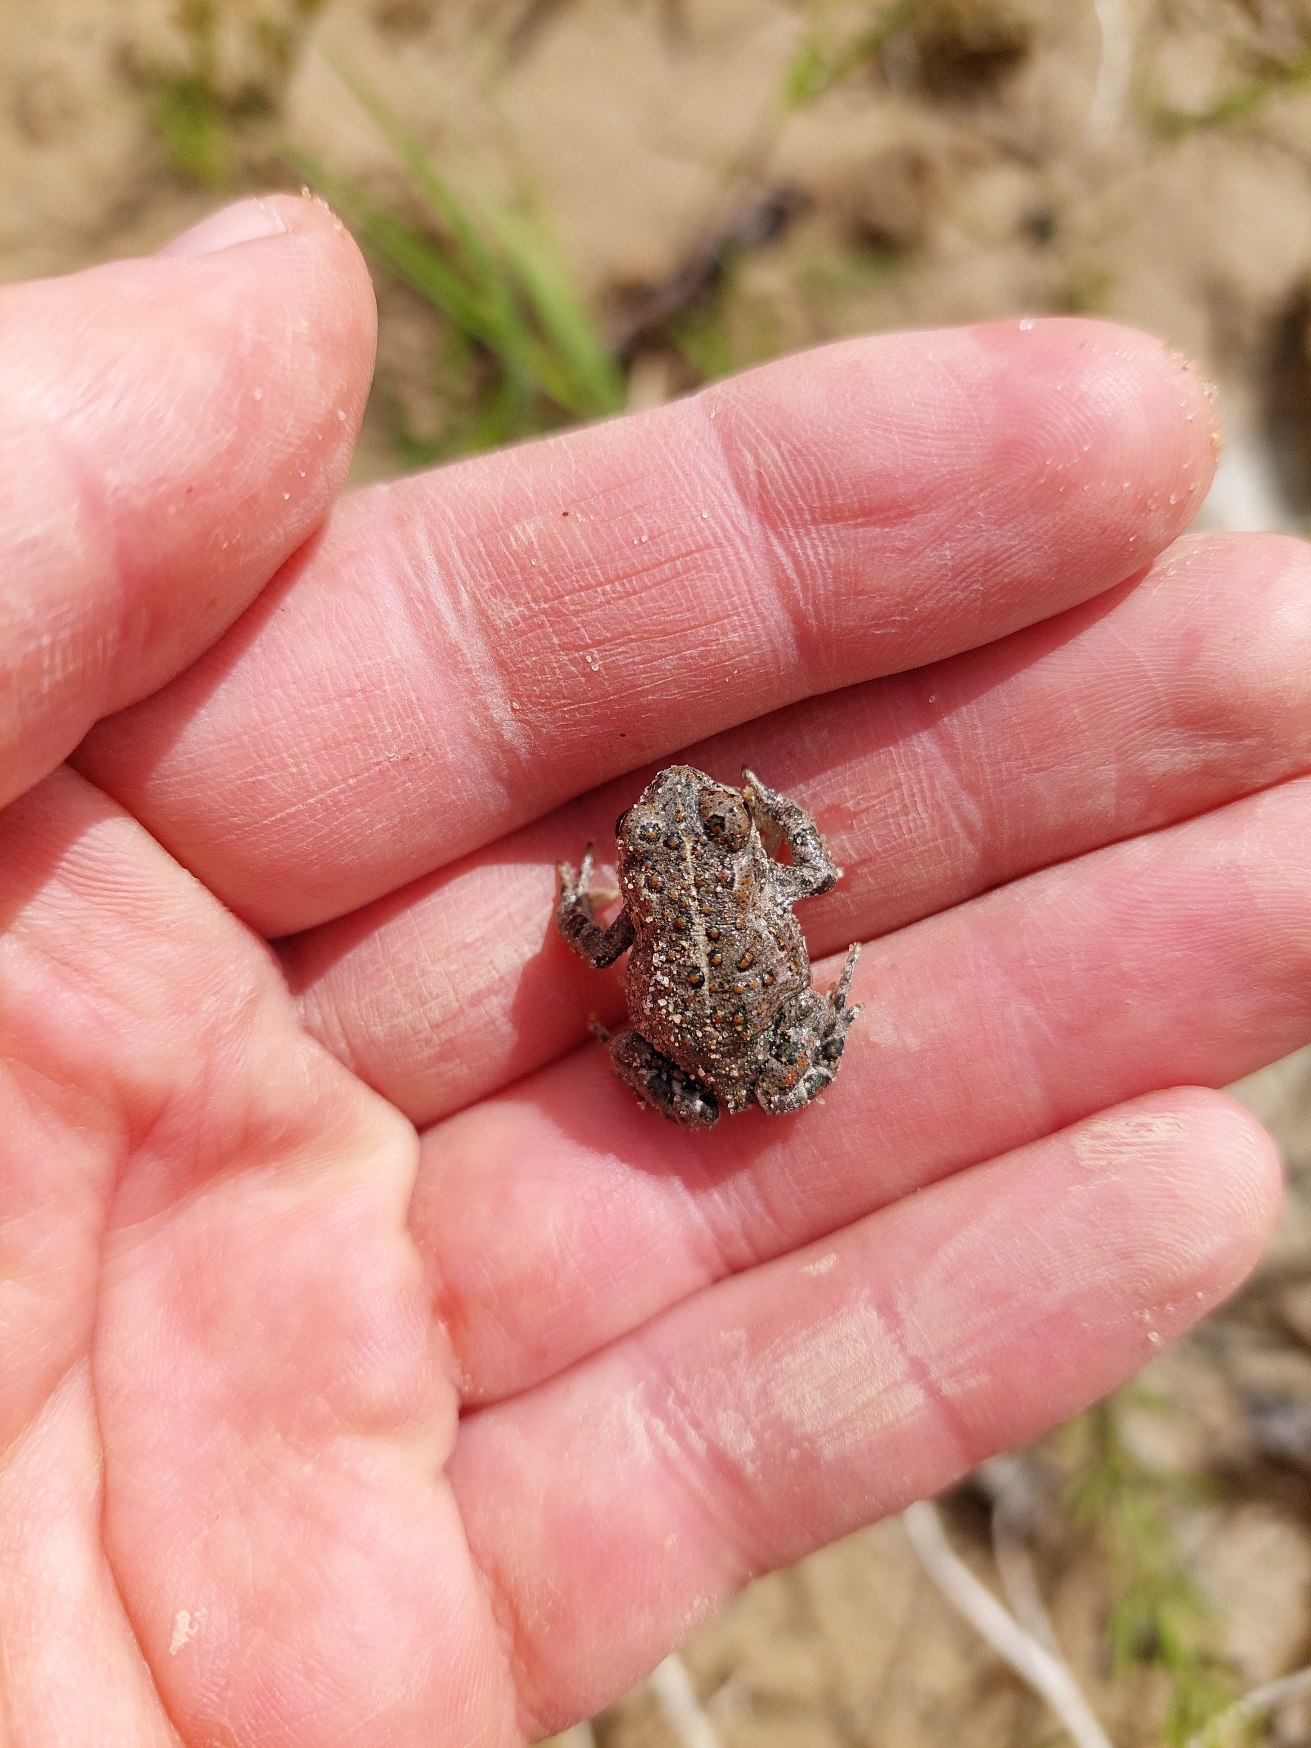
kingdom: Animalia
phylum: Chordata
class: Amphibia
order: Anura
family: Bufonidae
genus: Epidalea
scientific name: Epidalea calamita
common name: Strandtudse
